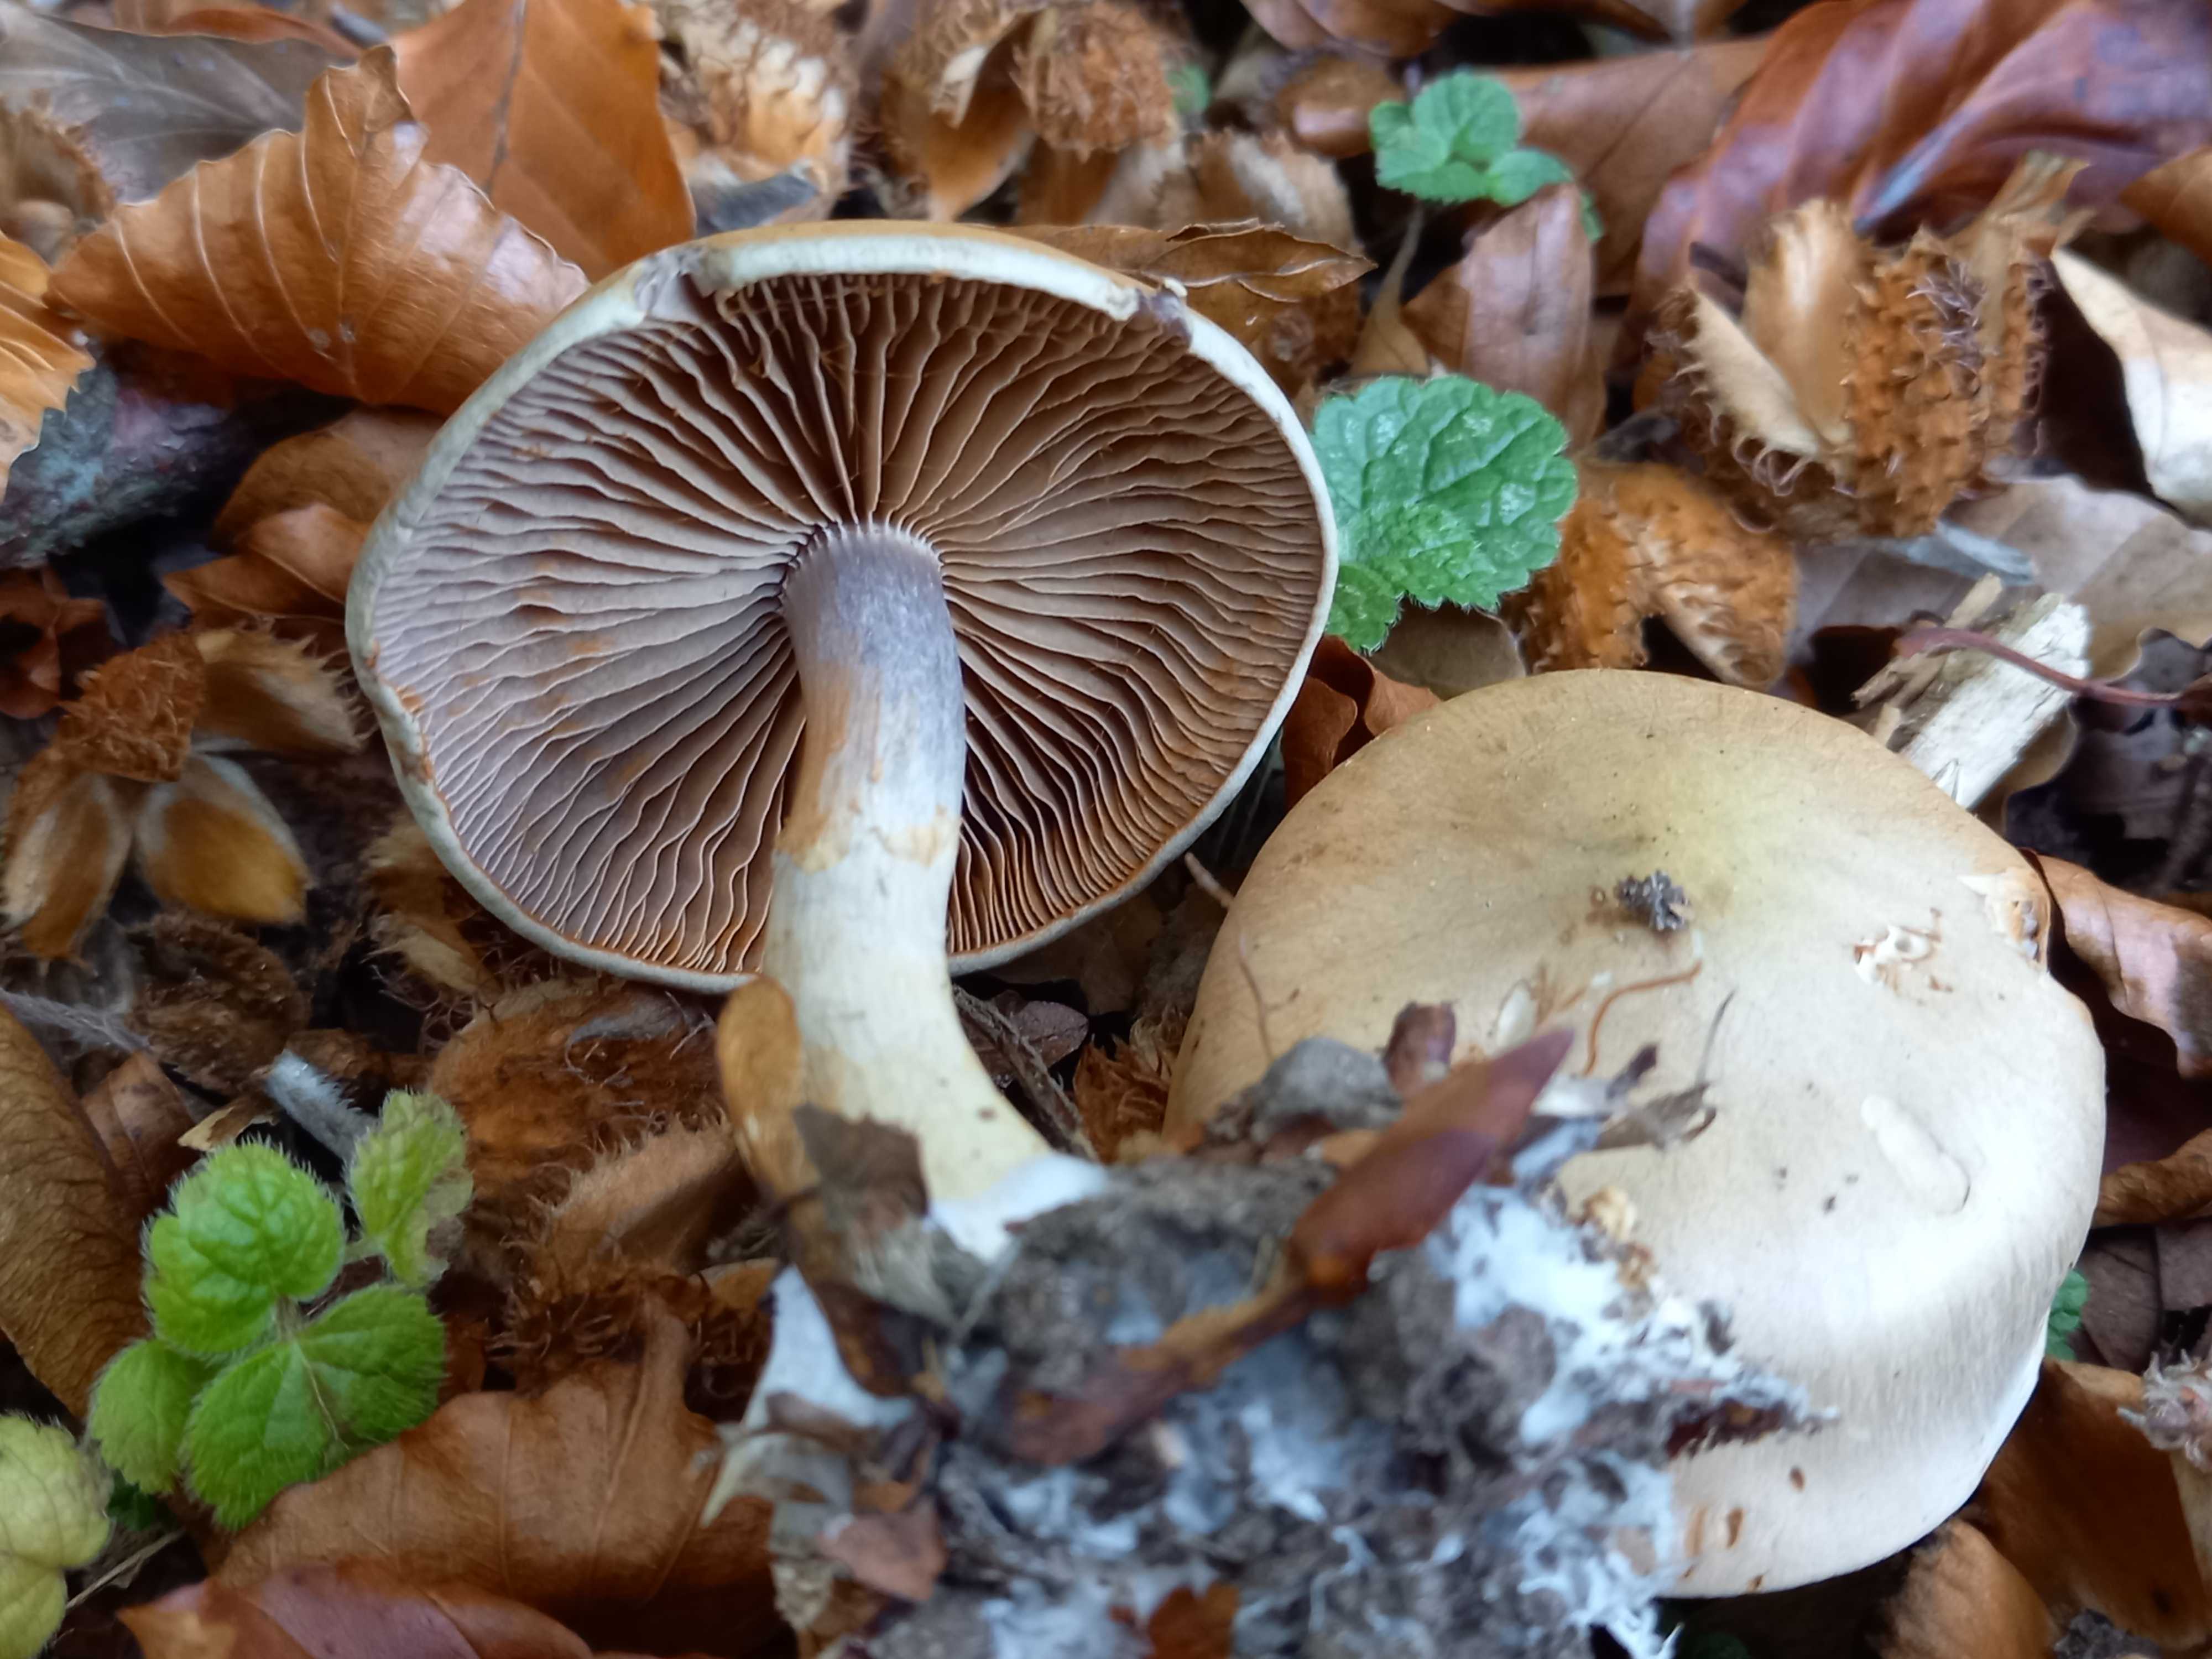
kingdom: Fungi
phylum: Basidiomycota
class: Agaricomycetes
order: Agaricales
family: Cortinariaceae
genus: Cortinarius
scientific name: Cortinarius
